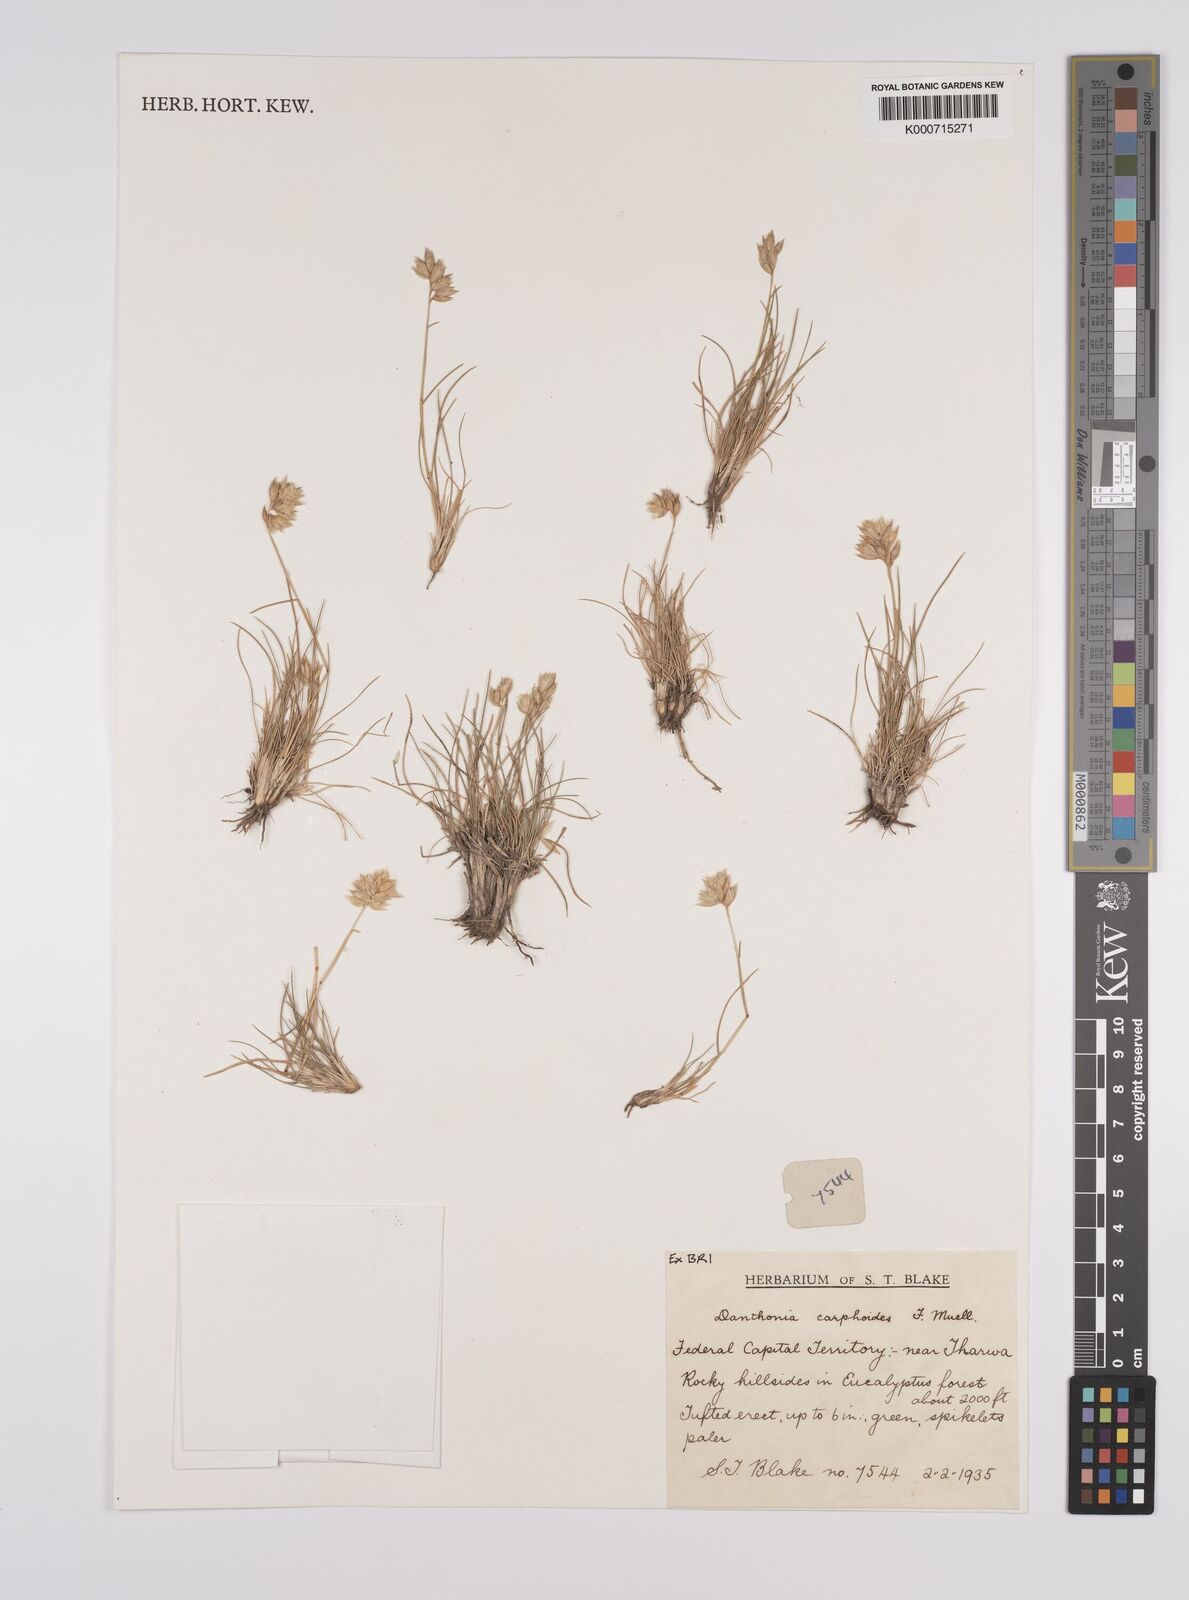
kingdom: Plantae
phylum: Tracheophyta
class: Liliopsida
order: Poales
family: Poaceae
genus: Rytidosperma
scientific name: Rytidosperma carphoides
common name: Short wallaby grass
